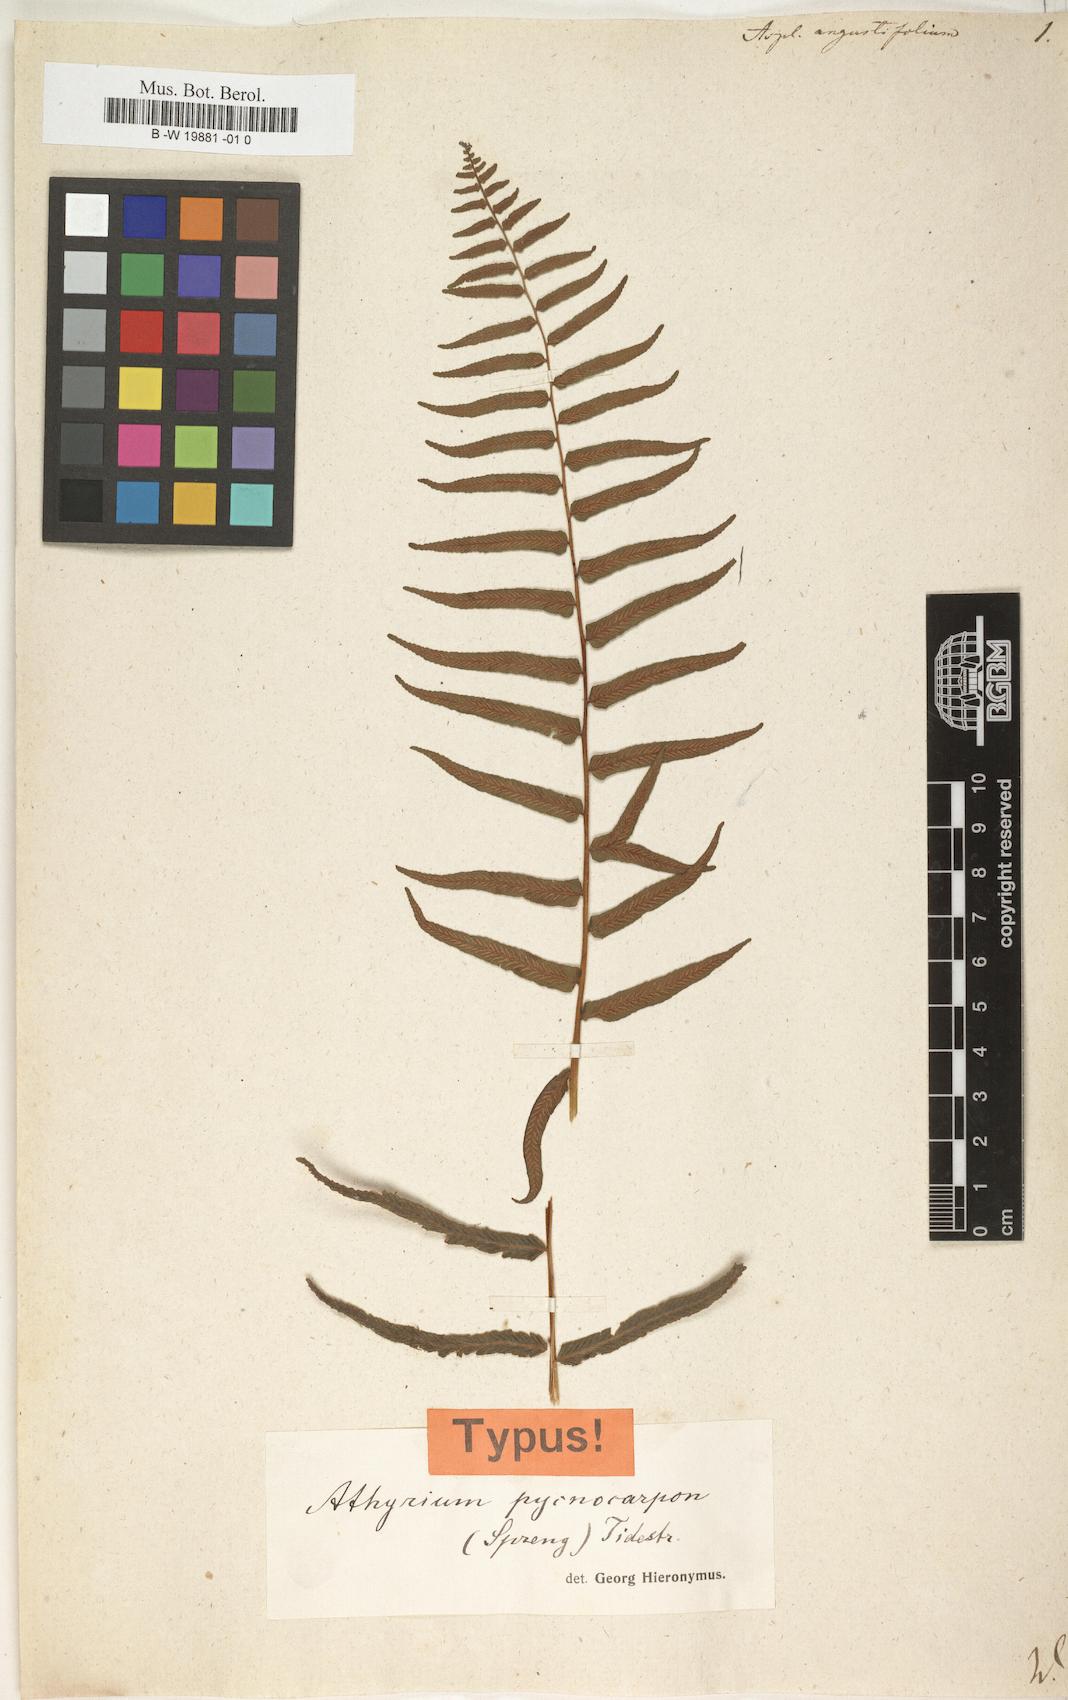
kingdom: Plantae
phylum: Tracheophyta
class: Polypodiopsida
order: Polypodiales
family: Diplaziopsidaceae
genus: Homalosorus
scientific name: Homalosorus pycnocarpos
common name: Glade fern
